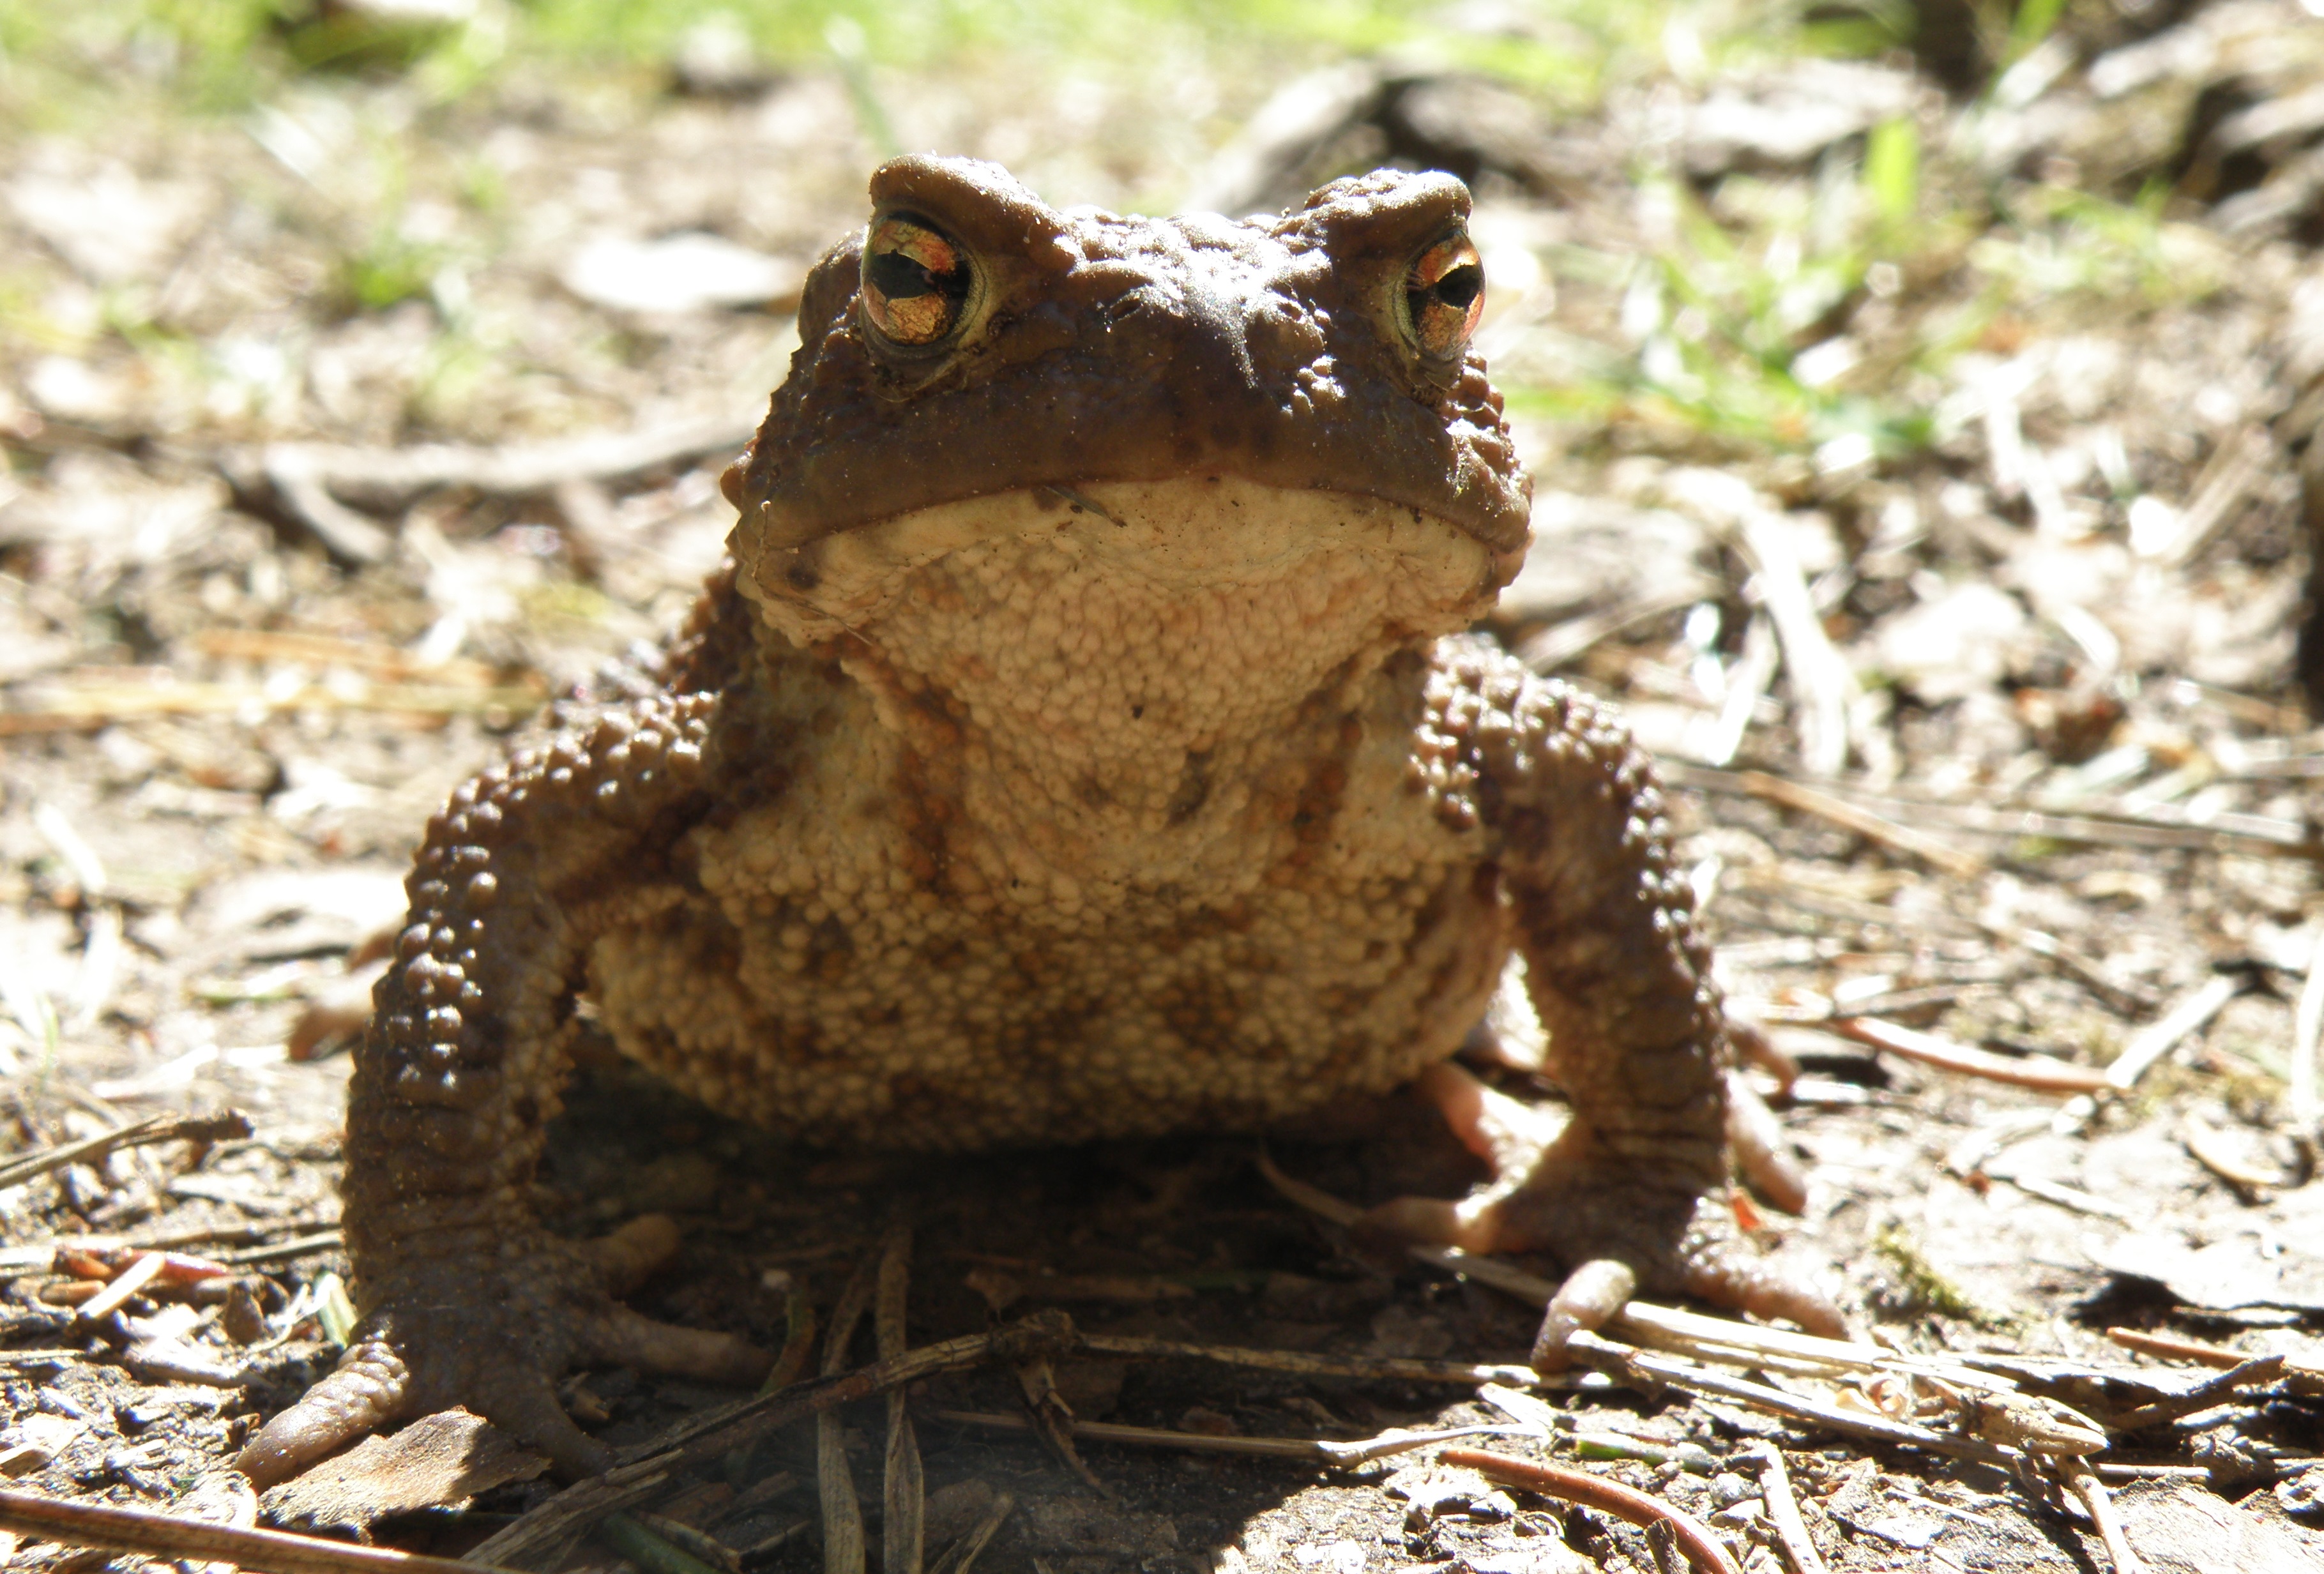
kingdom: Animalia
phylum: Chordata
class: Amphibia
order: Anura
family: Bufonidae
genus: Bufo
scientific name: Bufo bufo
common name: Common toad
